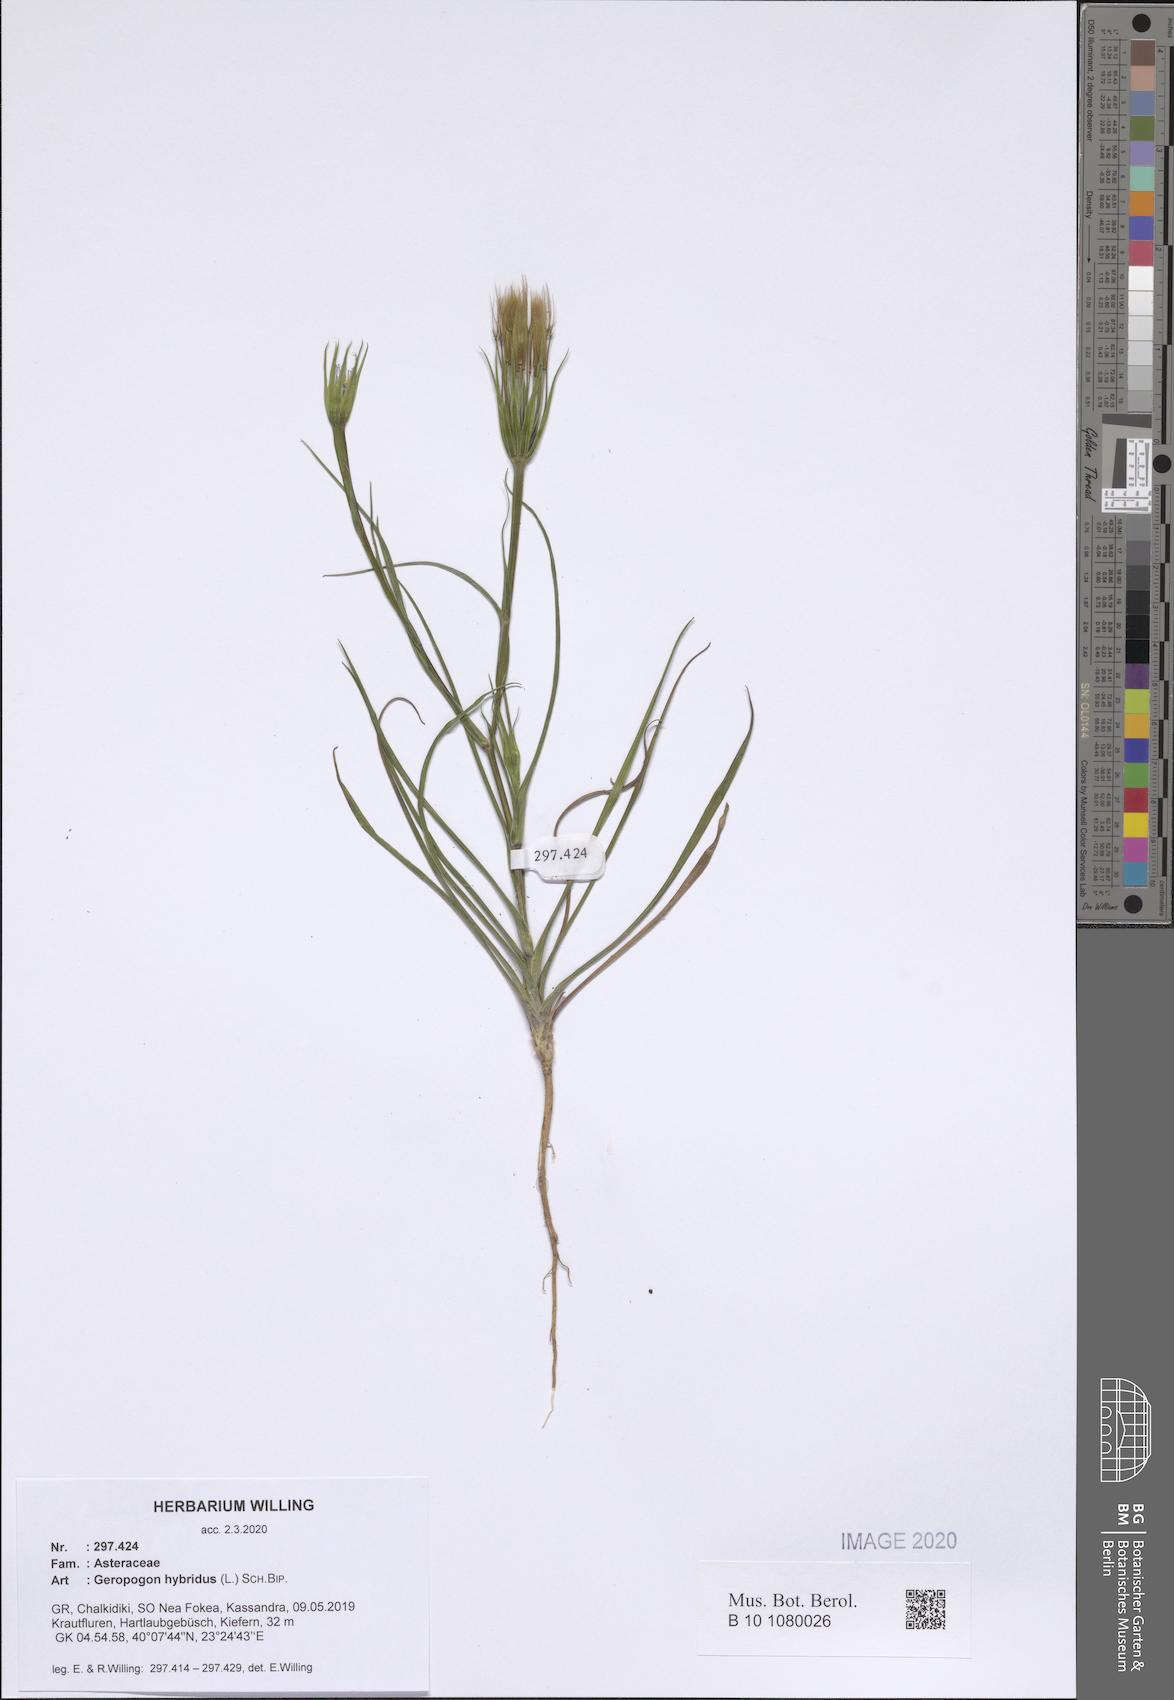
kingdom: Plantae
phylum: Tracheophyta
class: Magnoliopsida
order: Asterales
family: Asteraceae
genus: Geropogon
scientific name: Geropogon hybridus
